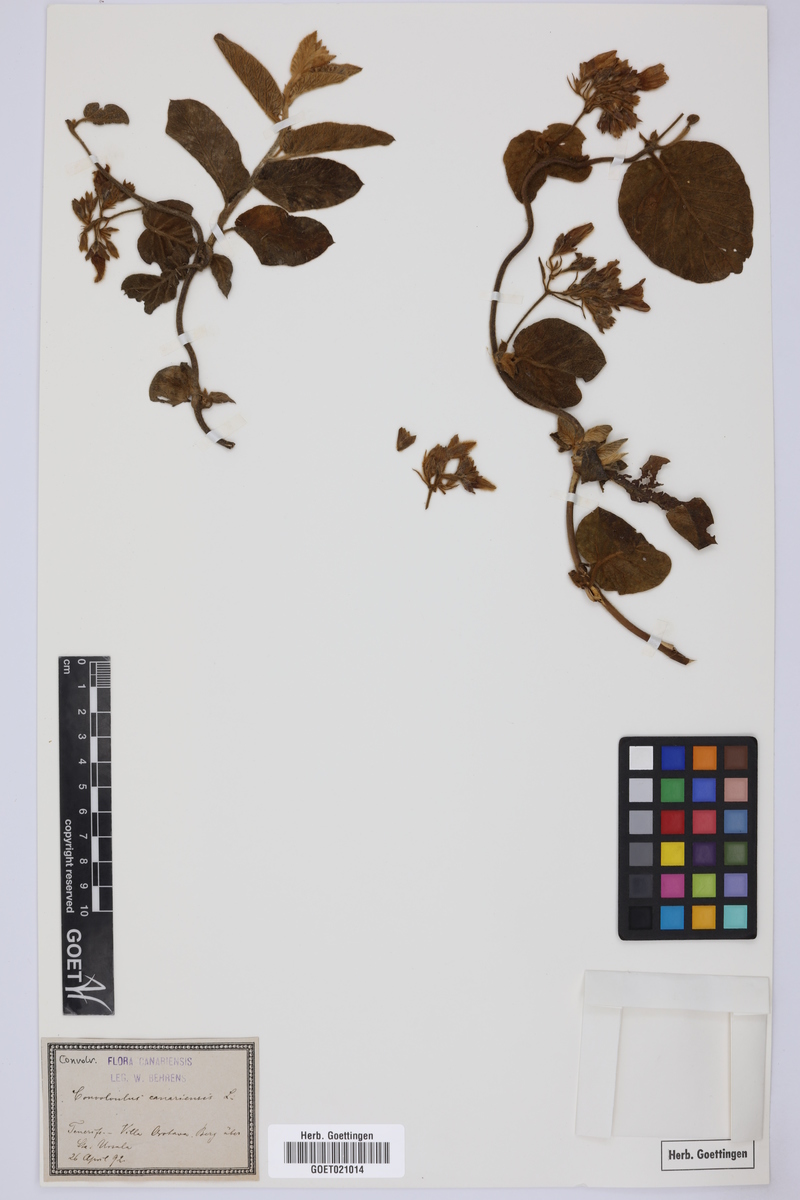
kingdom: Plantae
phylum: Tracheophyta
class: Magnoliopsida
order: Solanales
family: Convolvulaceae
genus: Convolvulus
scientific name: Convolvulus canariensis
